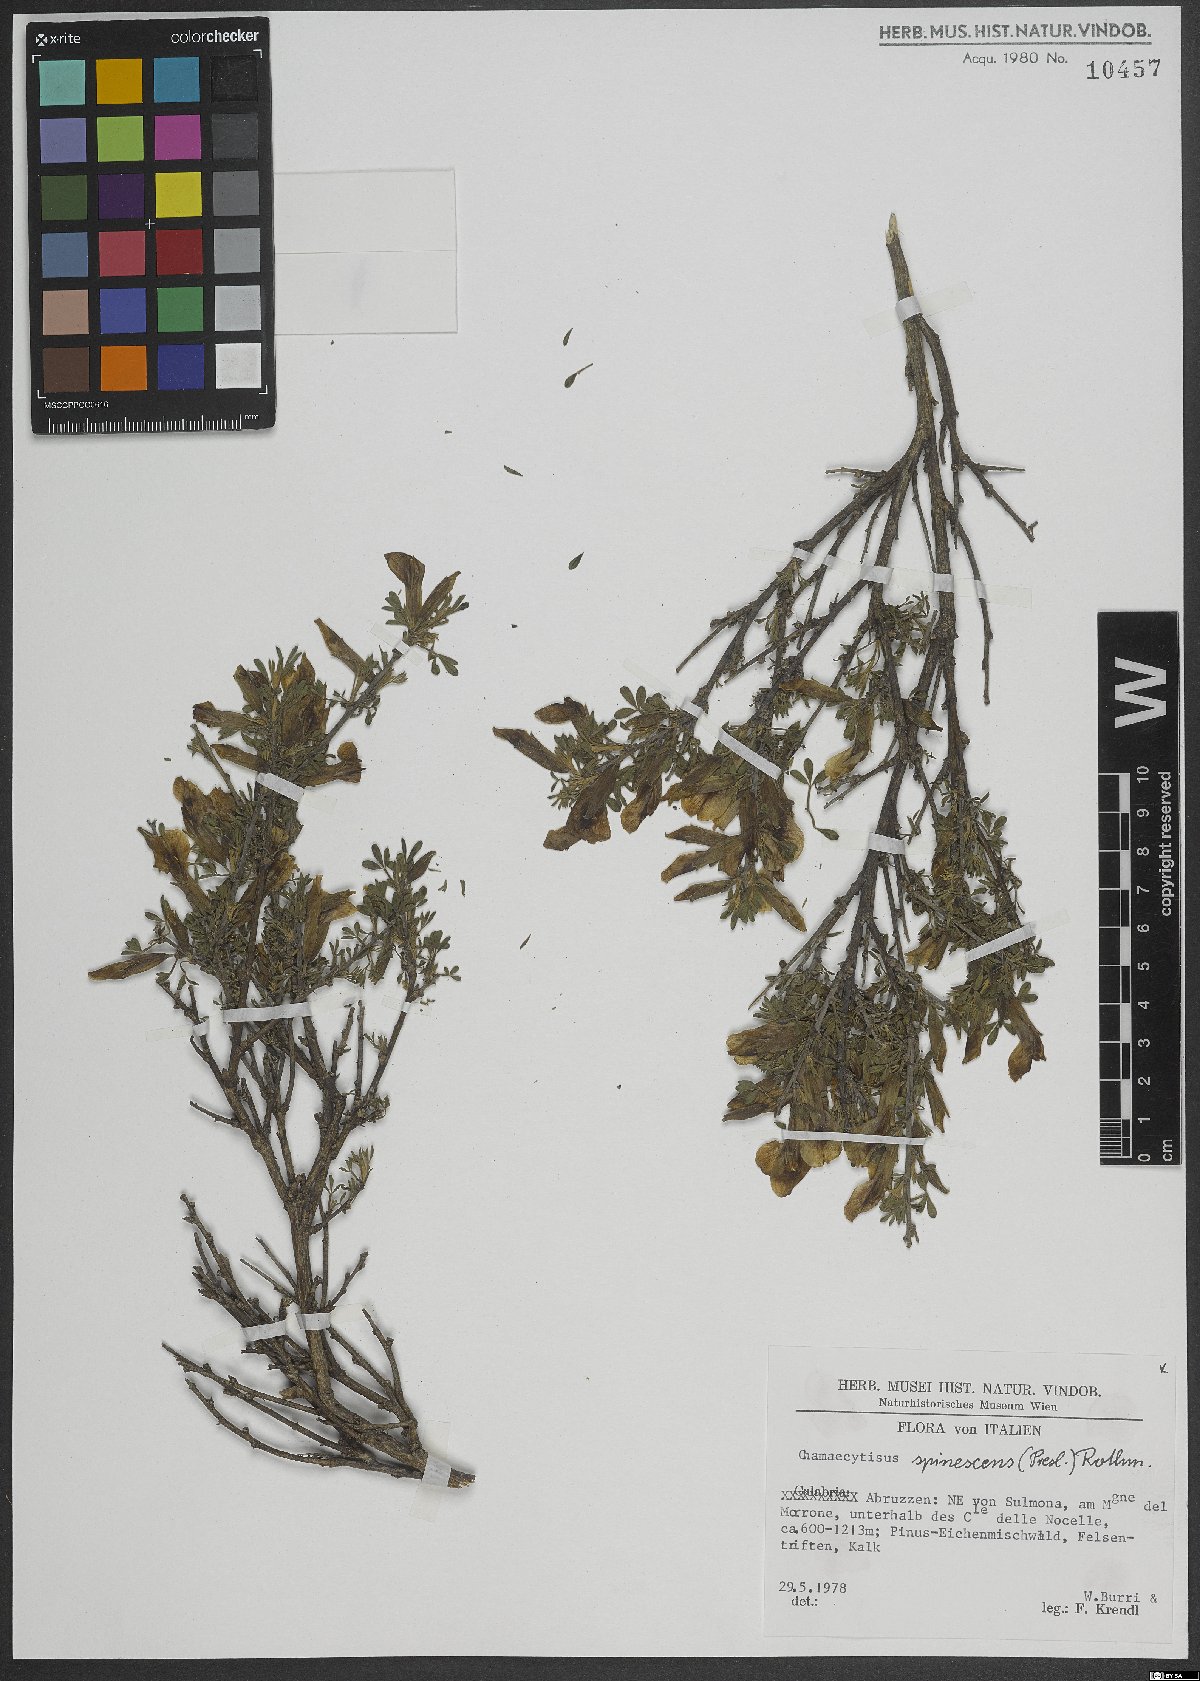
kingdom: Plantae
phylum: Tracheophyta
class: Magnoliopsida
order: Fabales
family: Fabaceae
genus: Chamaecytisus
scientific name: Chamaecytisus spinescens
